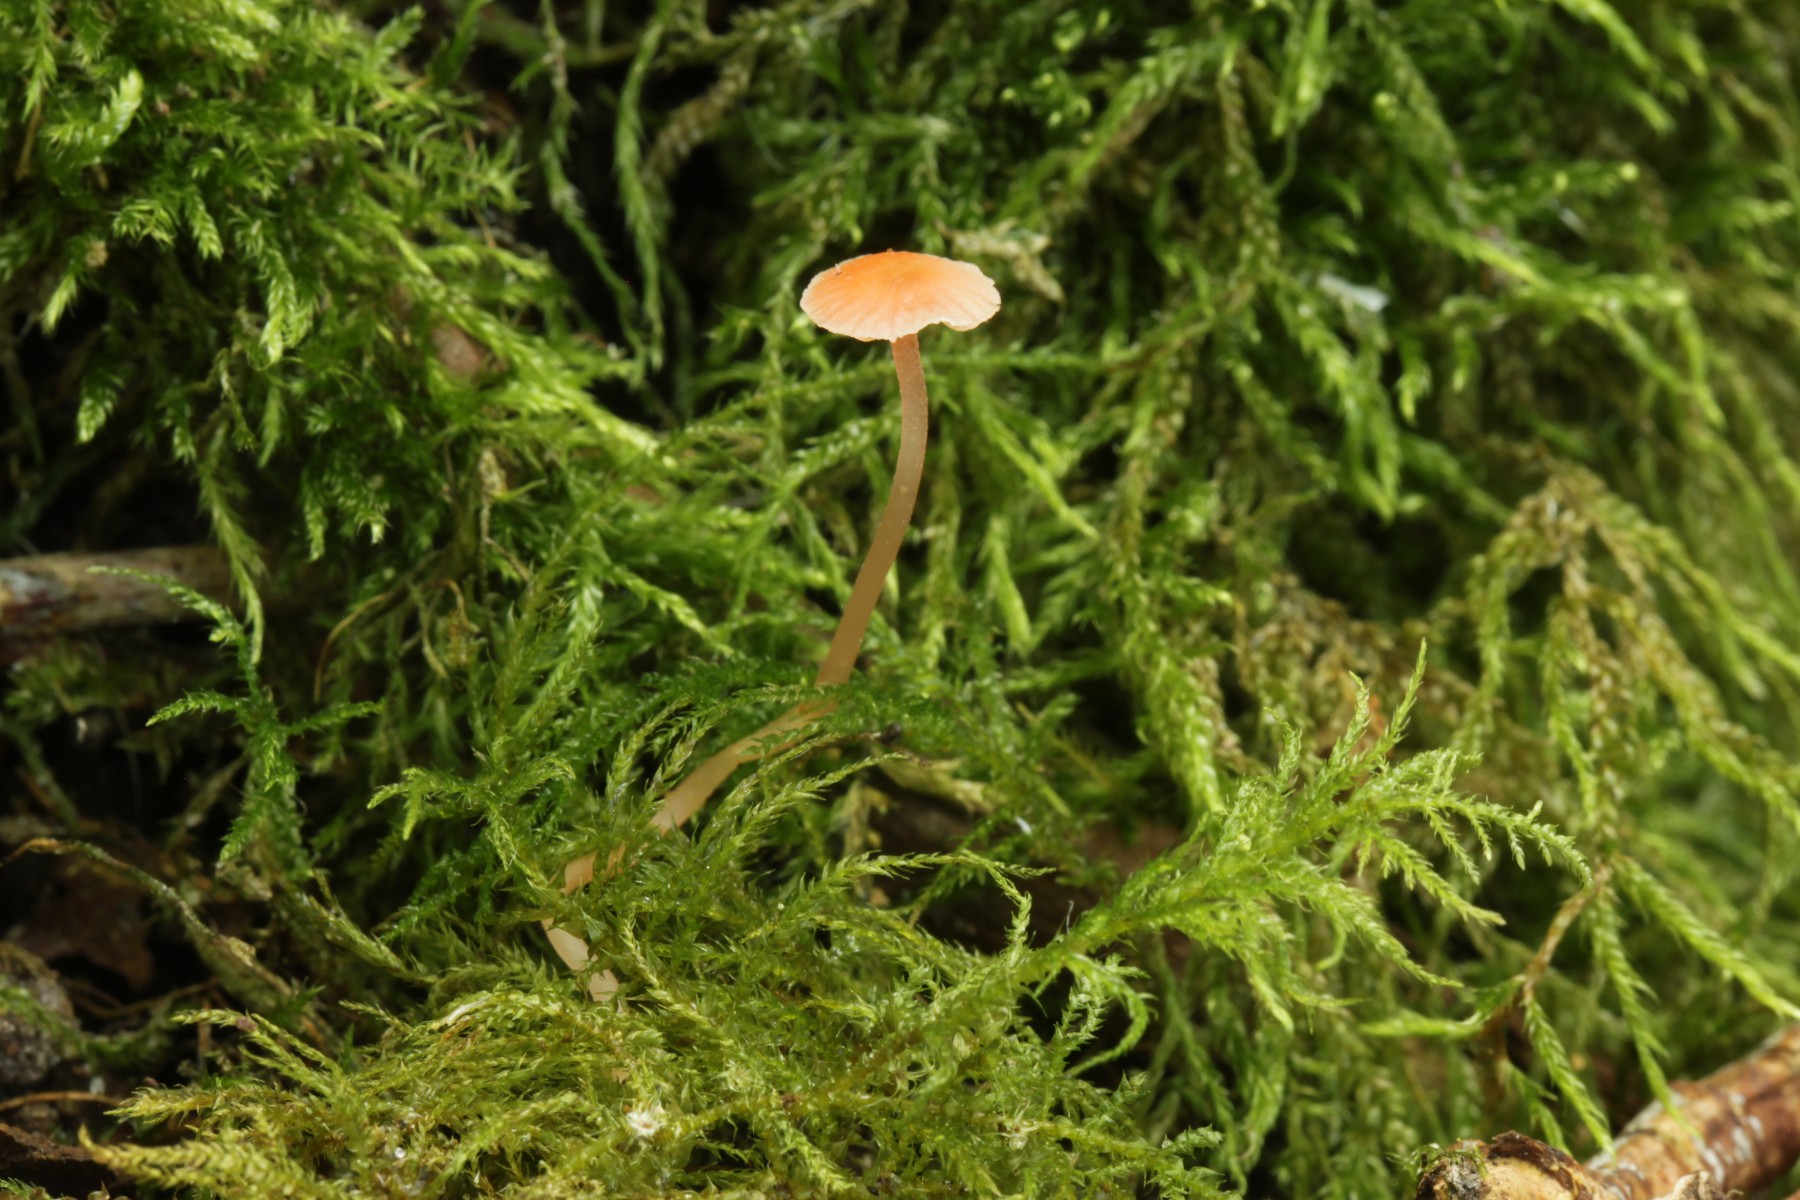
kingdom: Fungi
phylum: Basidiomycota
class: Agaricomycetes
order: Agaricales
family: Mycenaceae
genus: Mycena
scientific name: Mycena coccinea
